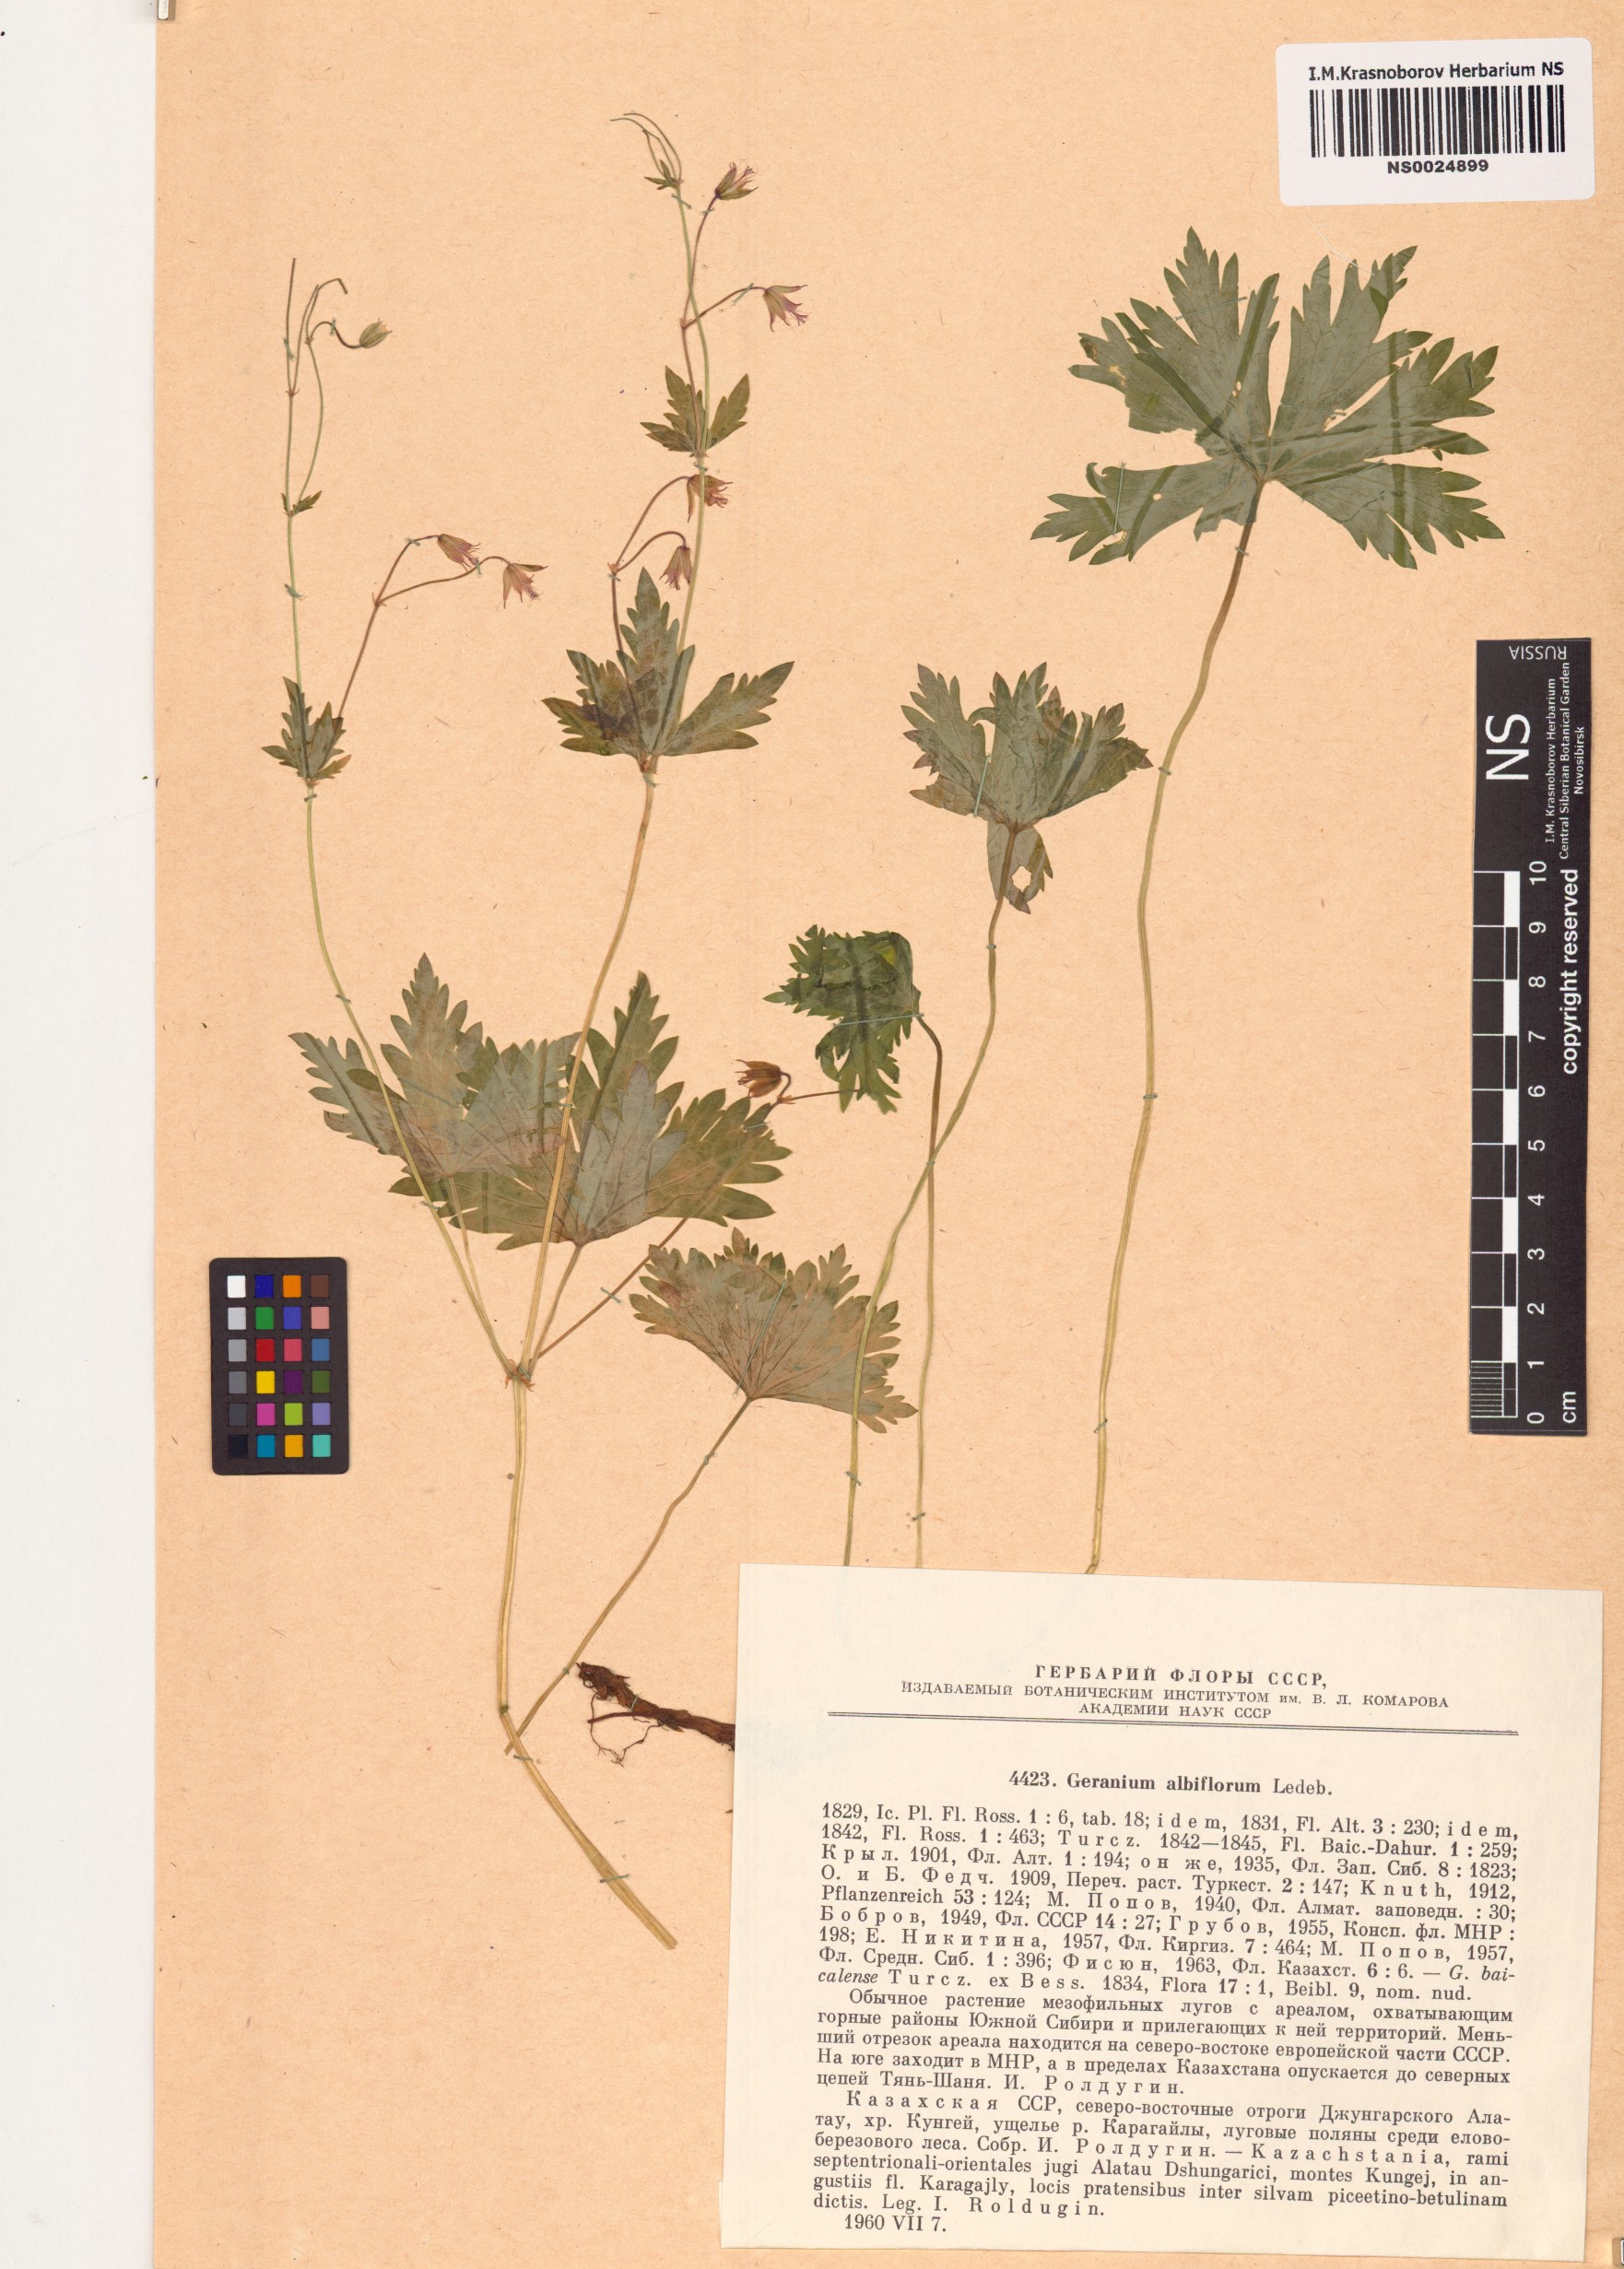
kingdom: Plantae
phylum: Tracheophyta
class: Magnoliopsida
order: Geraniales
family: Geraniaceae
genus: Geranium
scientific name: Geranium albiflorum
